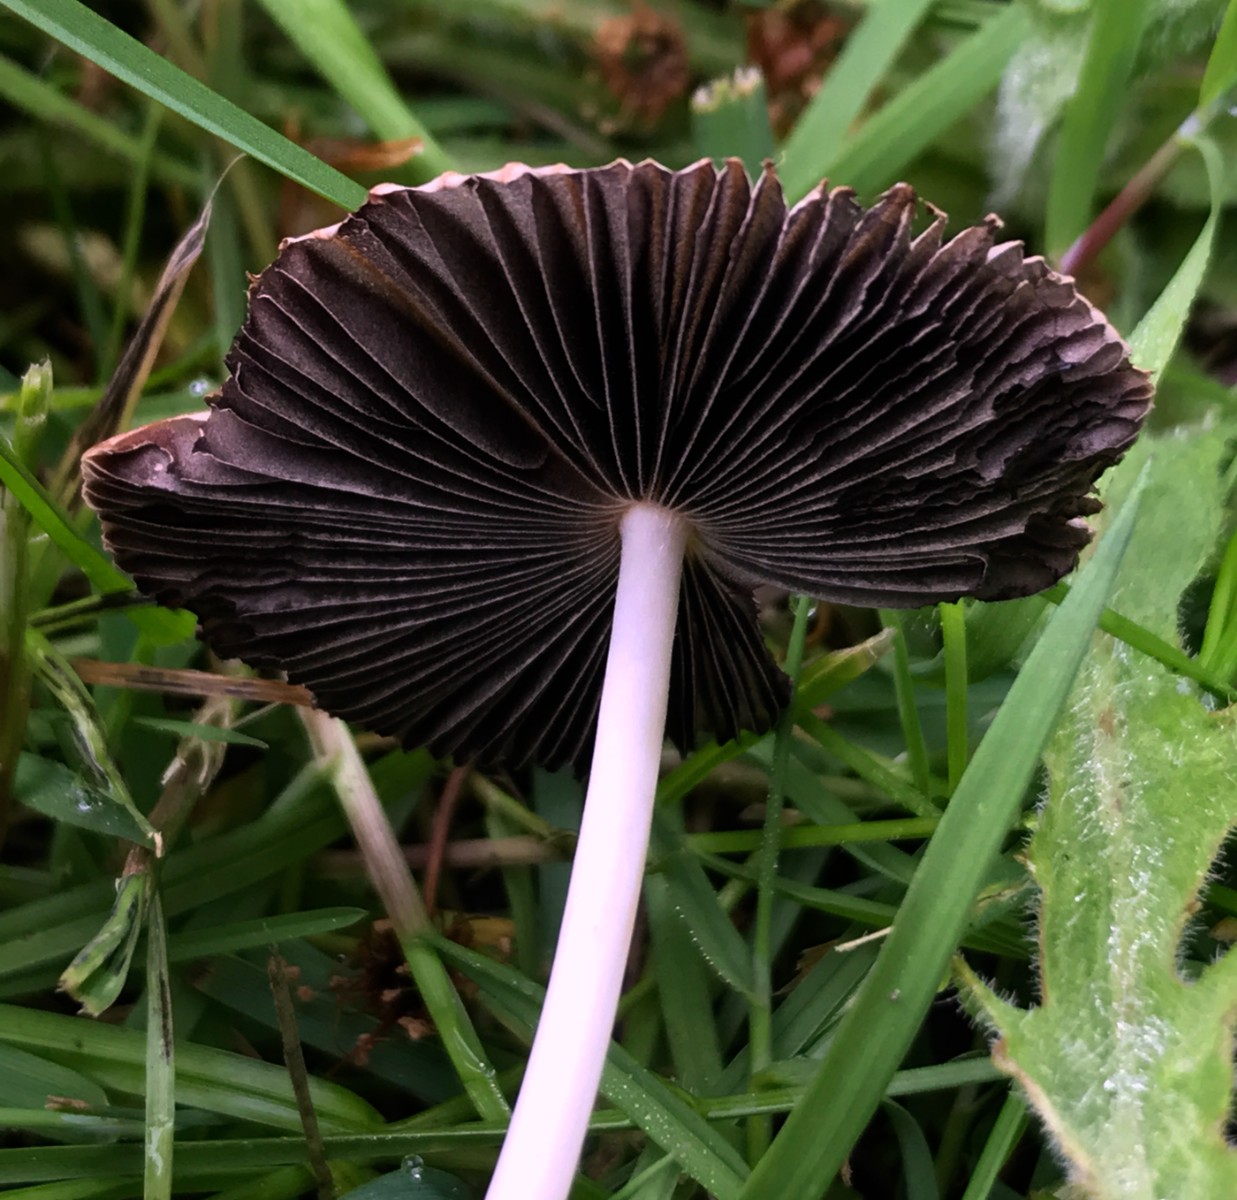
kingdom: Fungi
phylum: Basidiomycota
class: Agaricomycetes
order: Agaricales
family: Psathyrellaceae
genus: Parasola
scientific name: Parasola
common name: hjulhat
